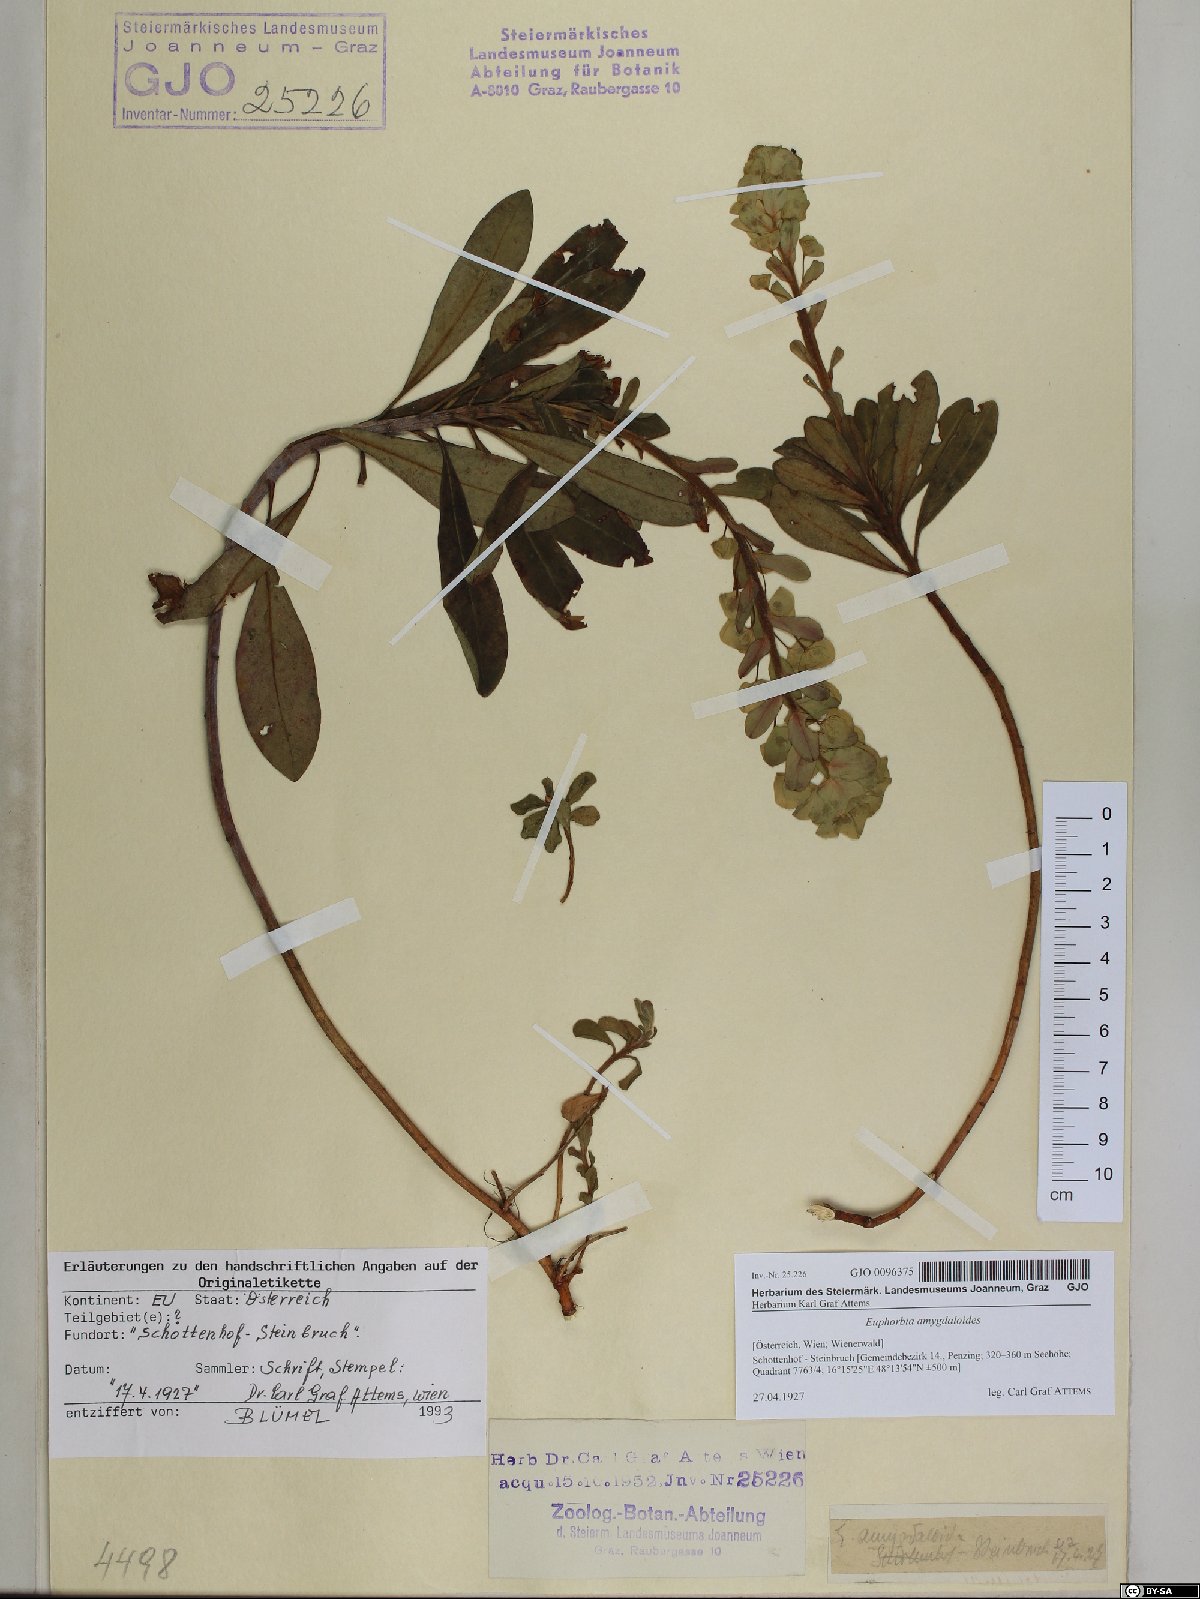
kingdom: Plantae
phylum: Tracheophyta
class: Magnoliopsida
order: Malpighiales
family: Euphorbiaceae
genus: Euphorbia
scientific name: Euphorbia amygdaloides
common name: Wood spurge
